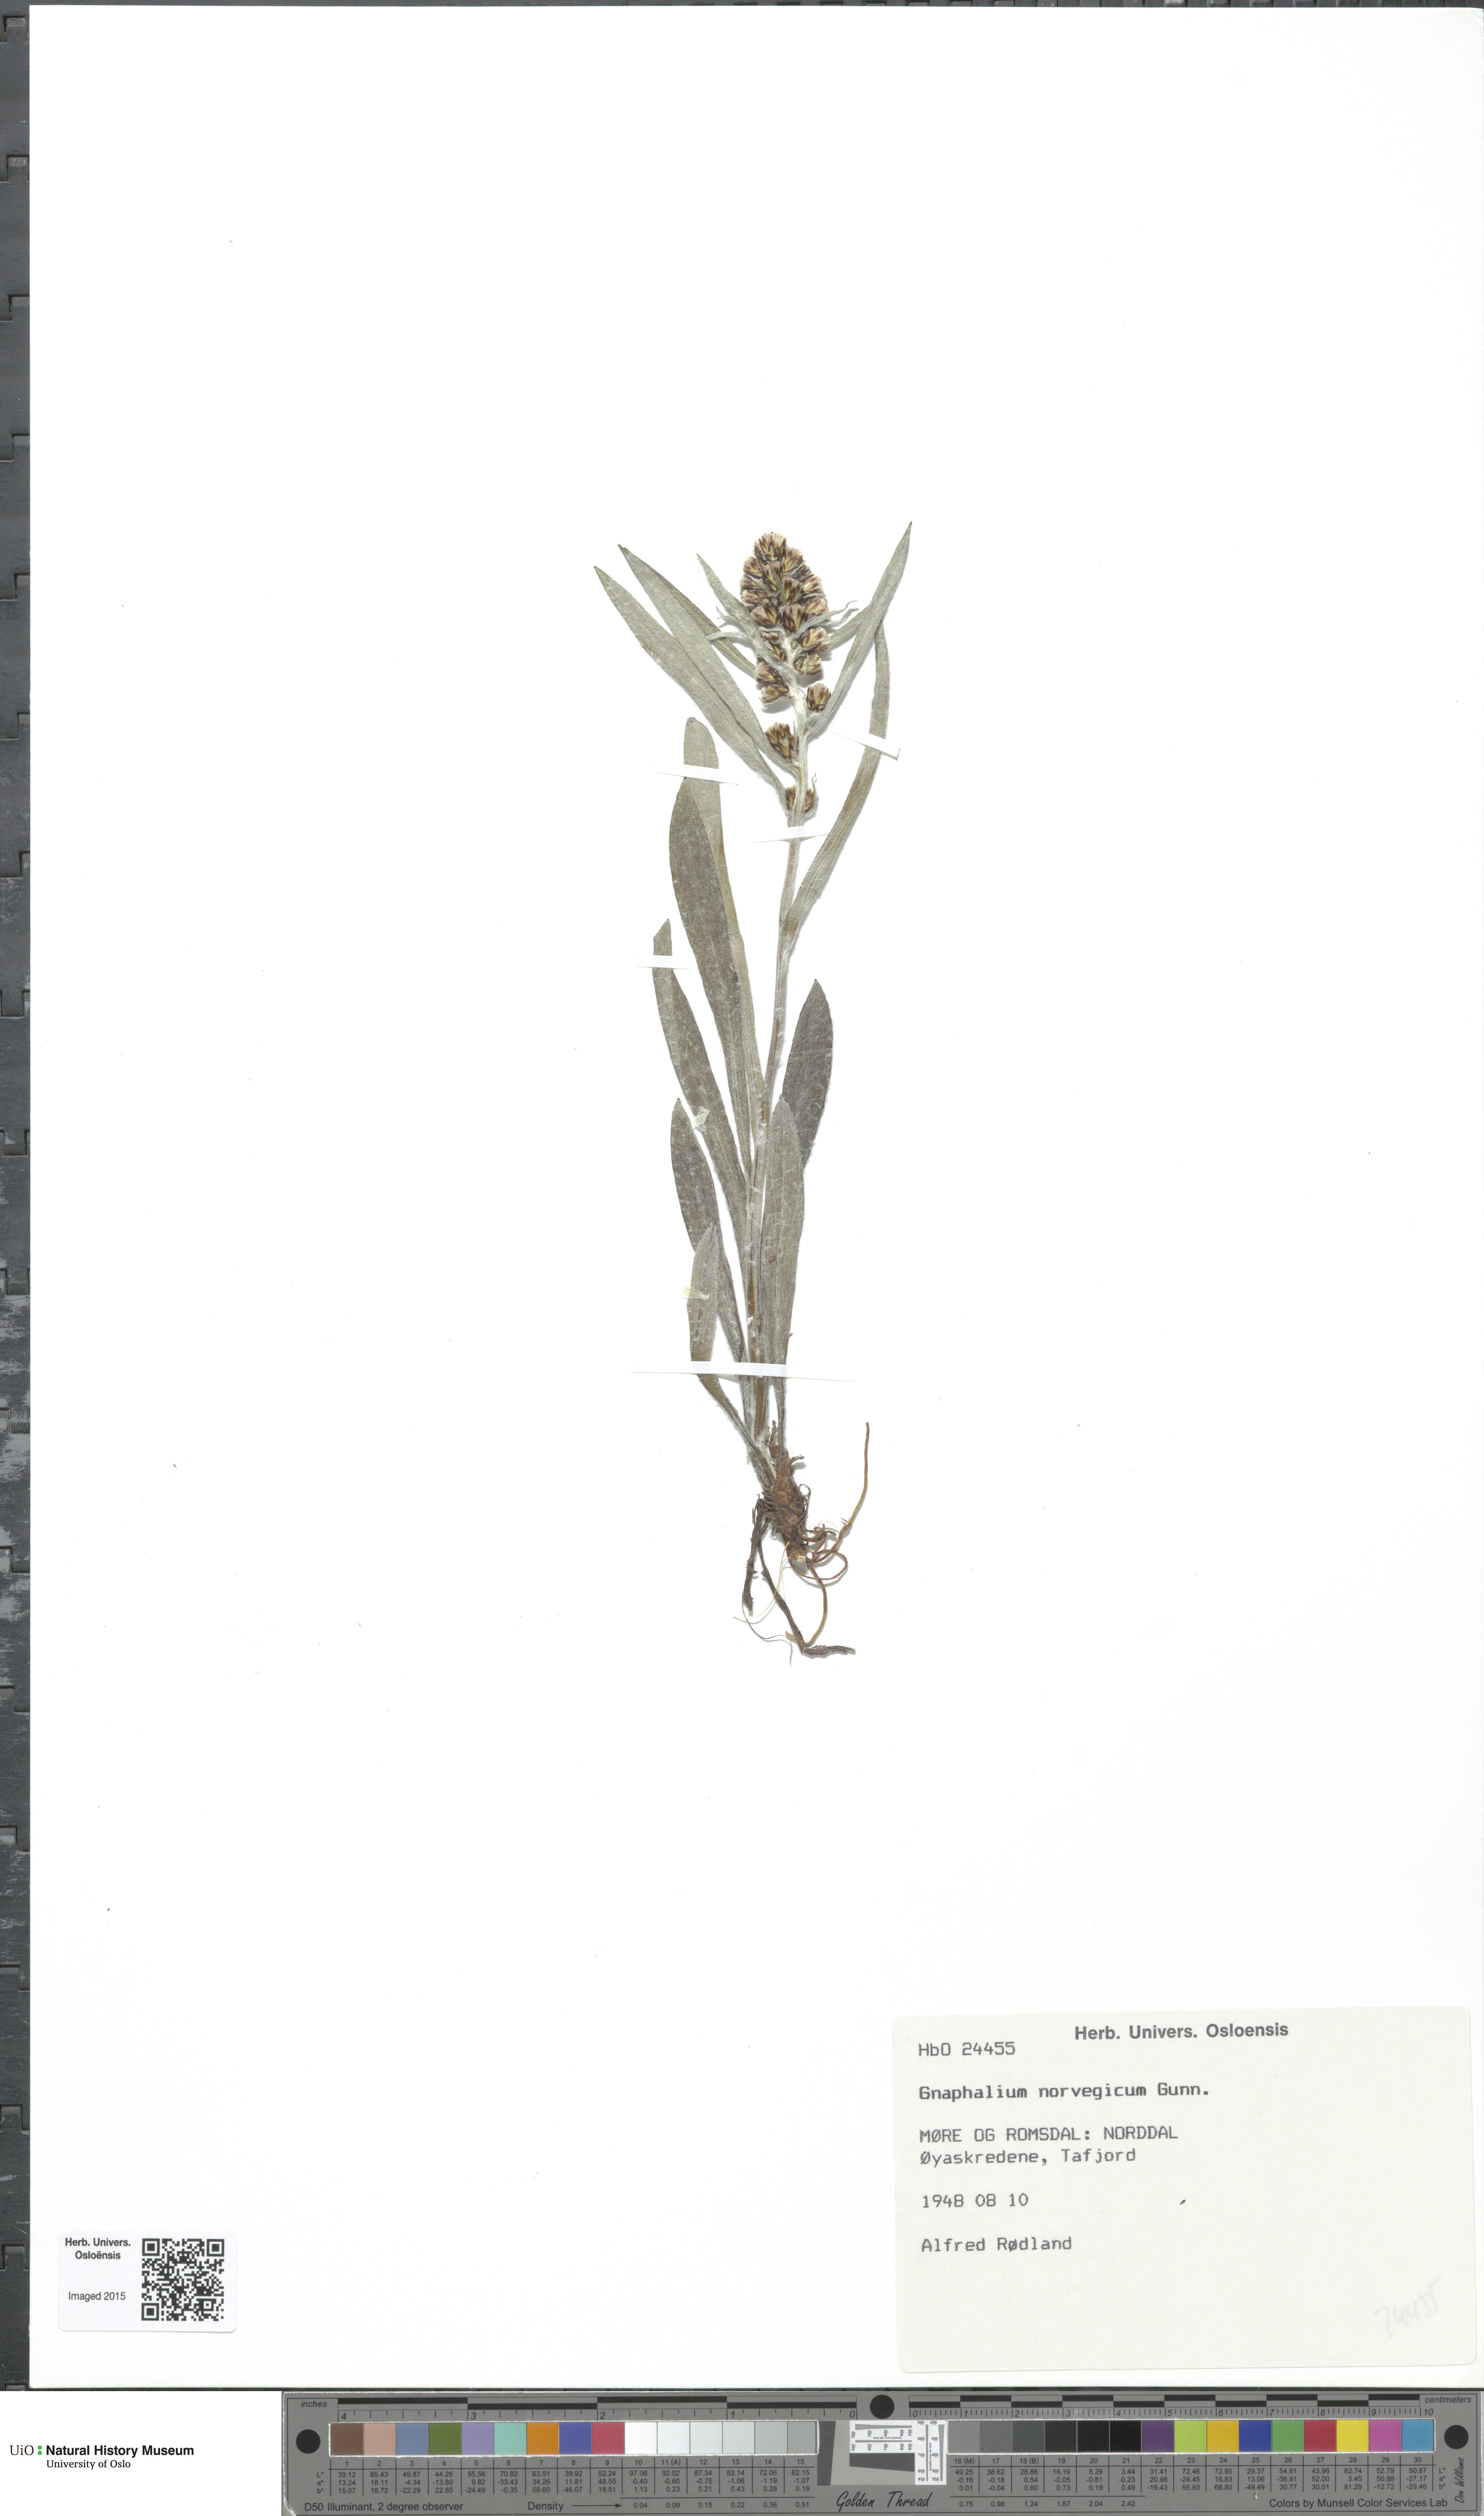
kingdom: Plantae
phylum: Tracheophyta
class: Magnoliopsida
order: Asterales
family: Asteraceae
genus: Omalotheca
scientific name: Omalotheca norvegica
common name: Norwegian arctic-cudweed
